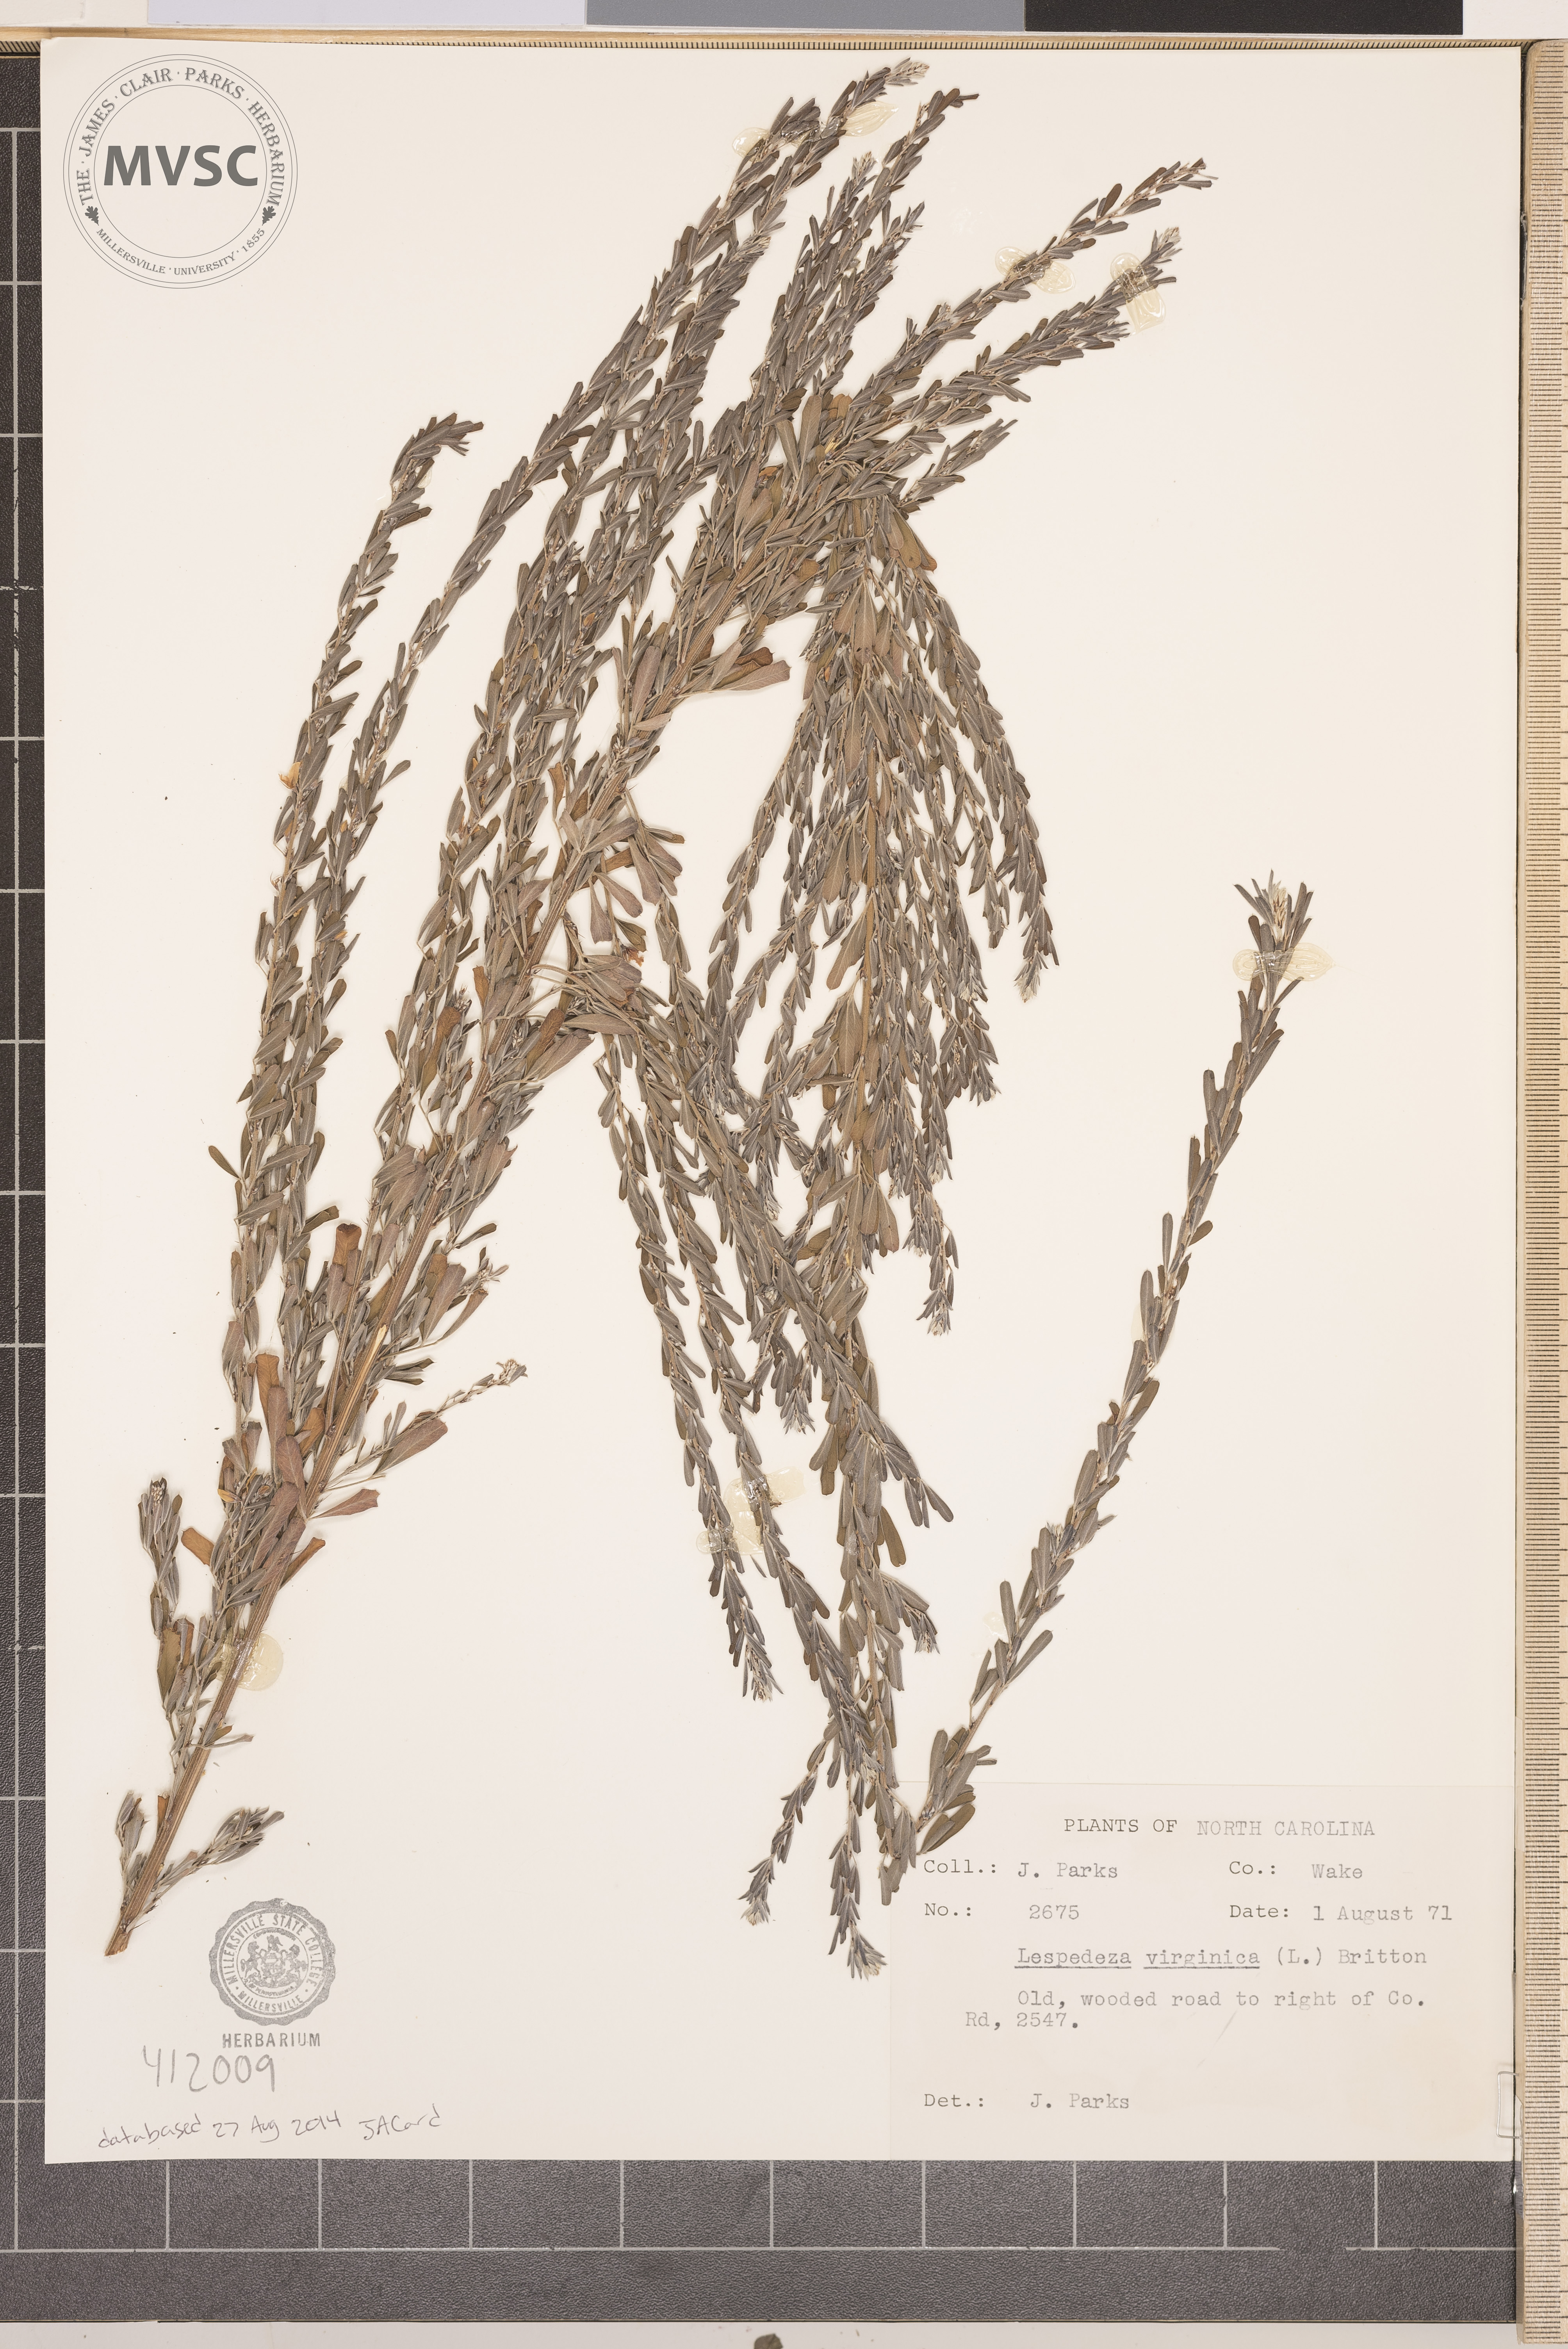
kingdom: Plantae
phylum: Tracheophyta
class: Magnoliopsida
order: Fabales
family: Fabaceae
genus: Lespedeza
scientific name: Lespedeza virginica
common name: Slender bush-clover
